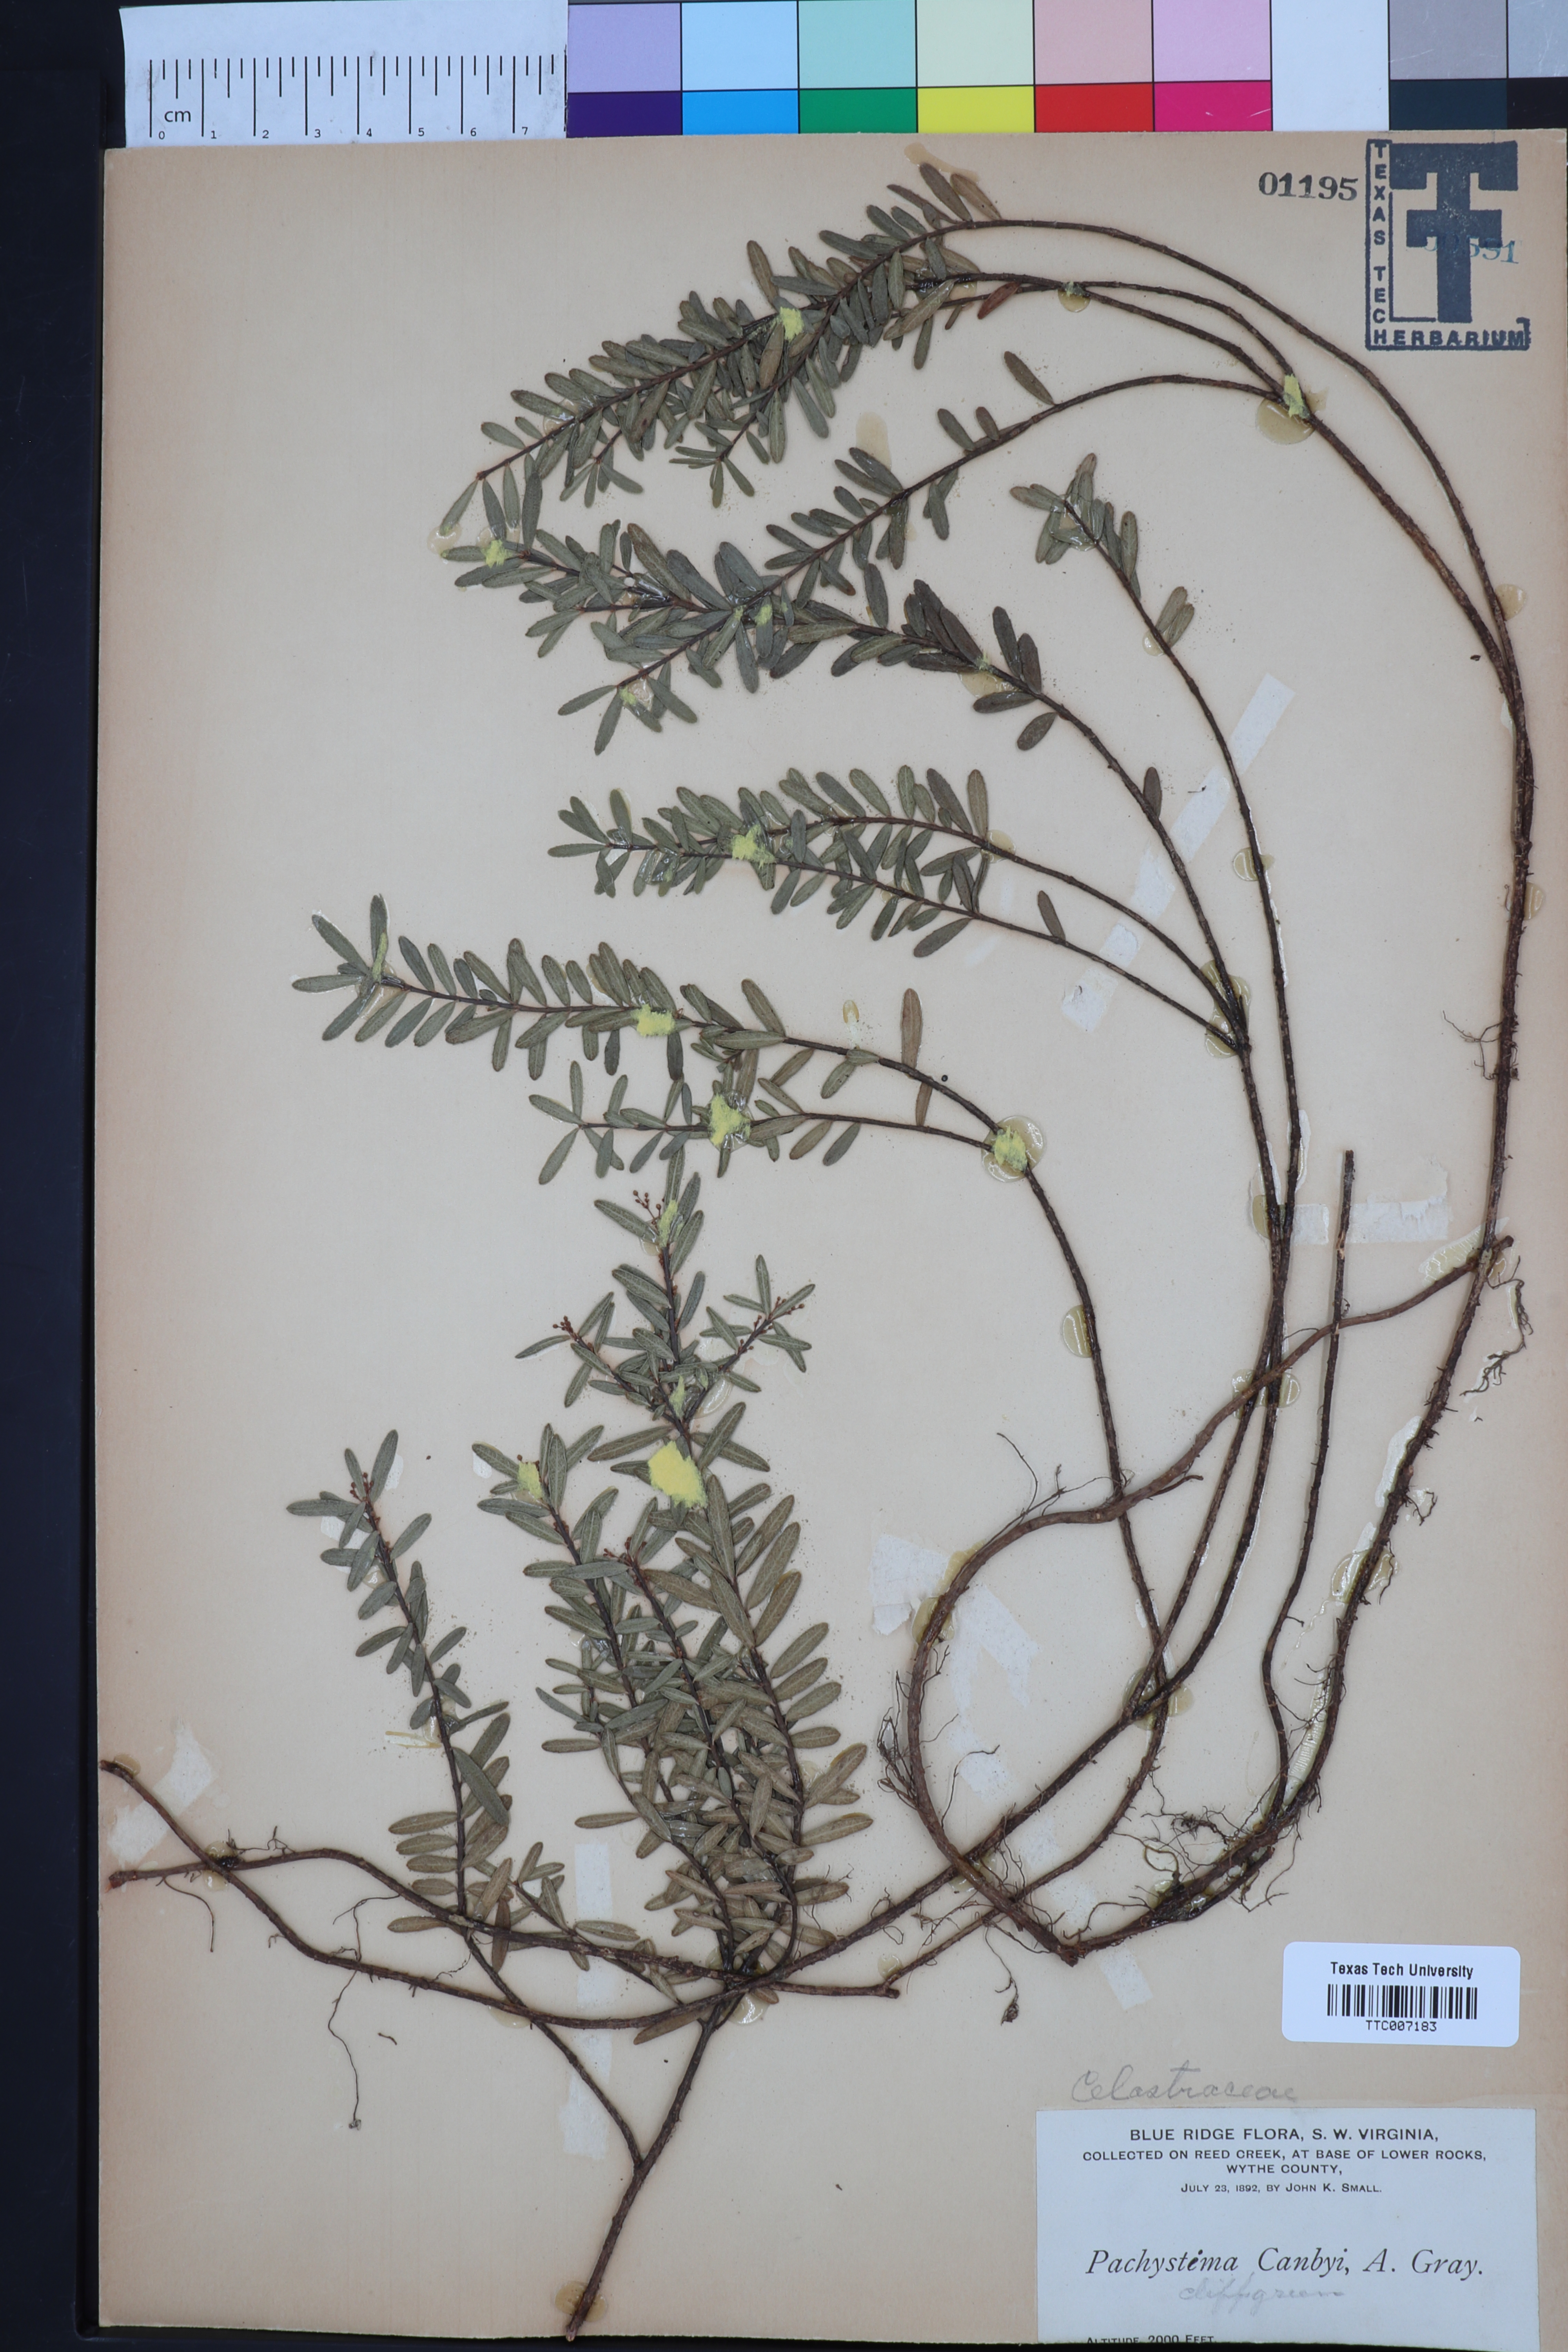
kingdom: Plantae
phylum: Tracheophyta
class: Magnoliopsida
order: Celastrales
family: Celastraceae
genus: Paxistima
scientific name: Paxistima Pachistima canbyi
